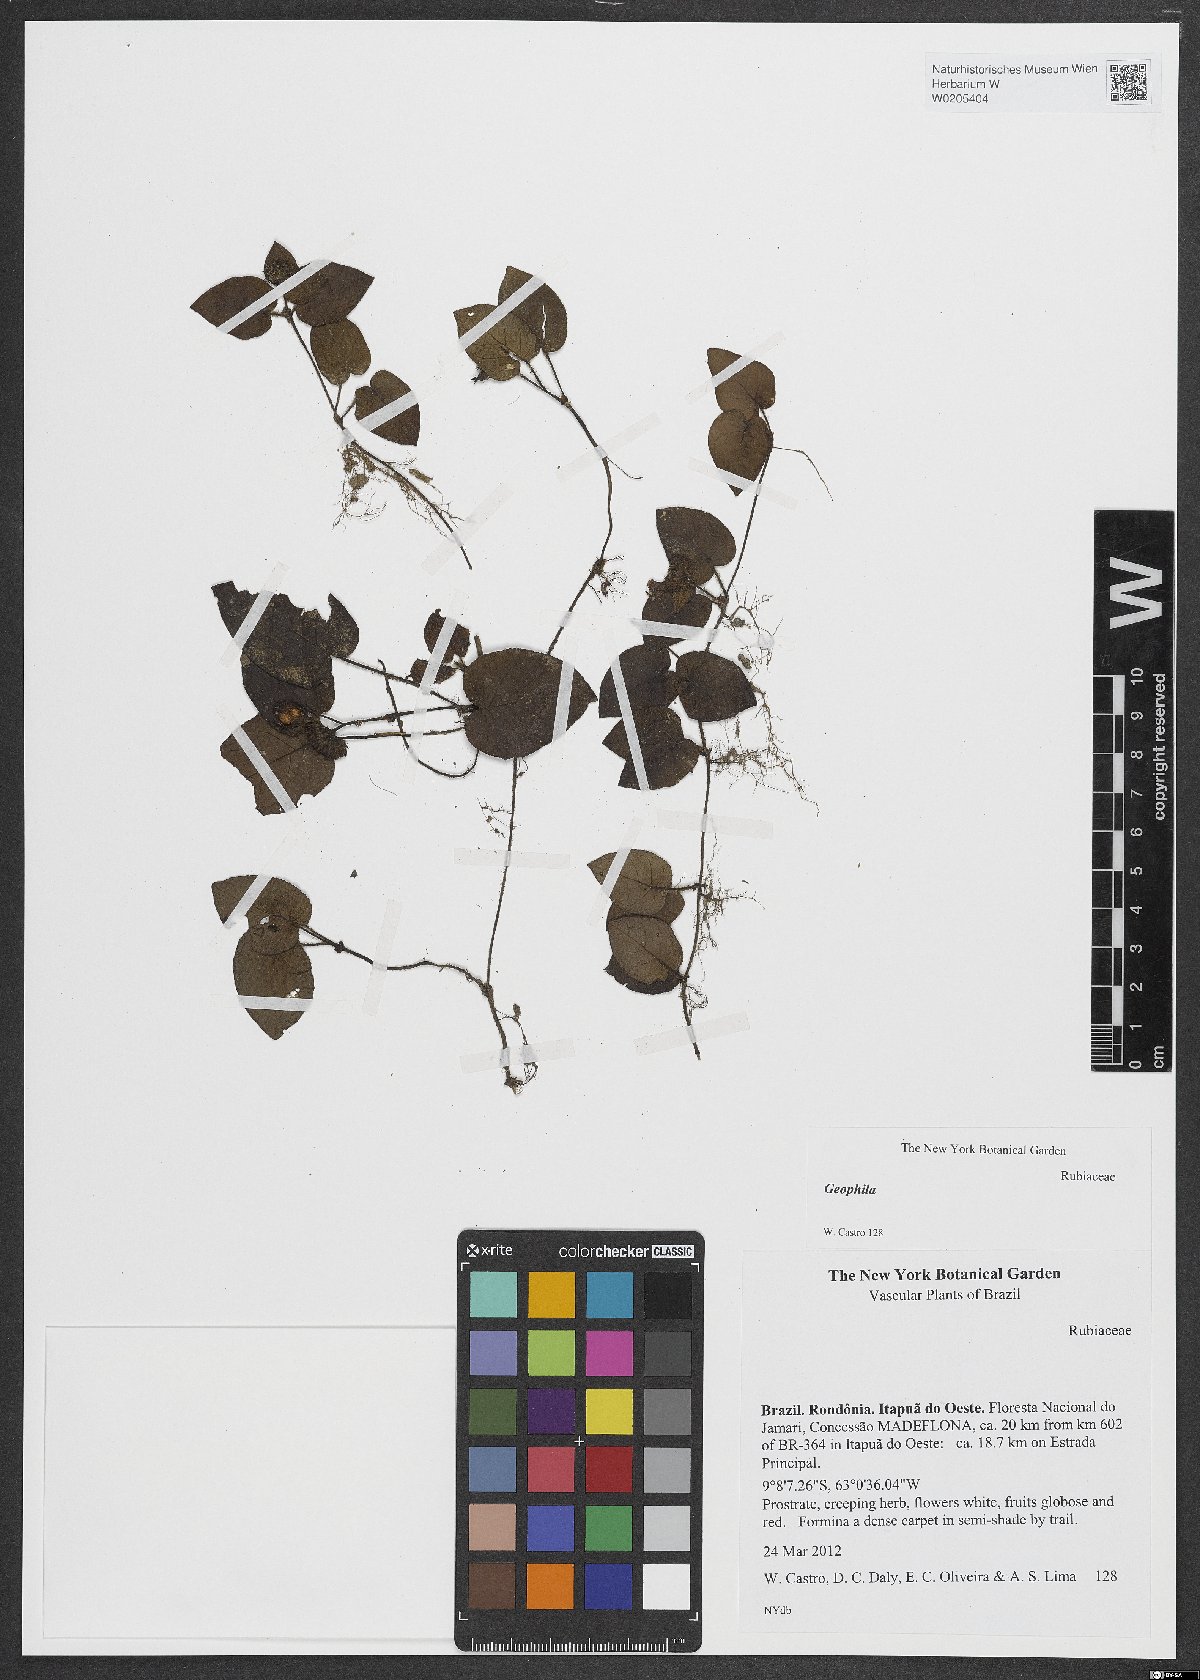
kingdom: Plantae
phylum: Tracheophyta
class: Magnoliopsida
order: Gentianales
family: Rubiaceae
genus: Geophila
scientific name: Geophila cordifolia
